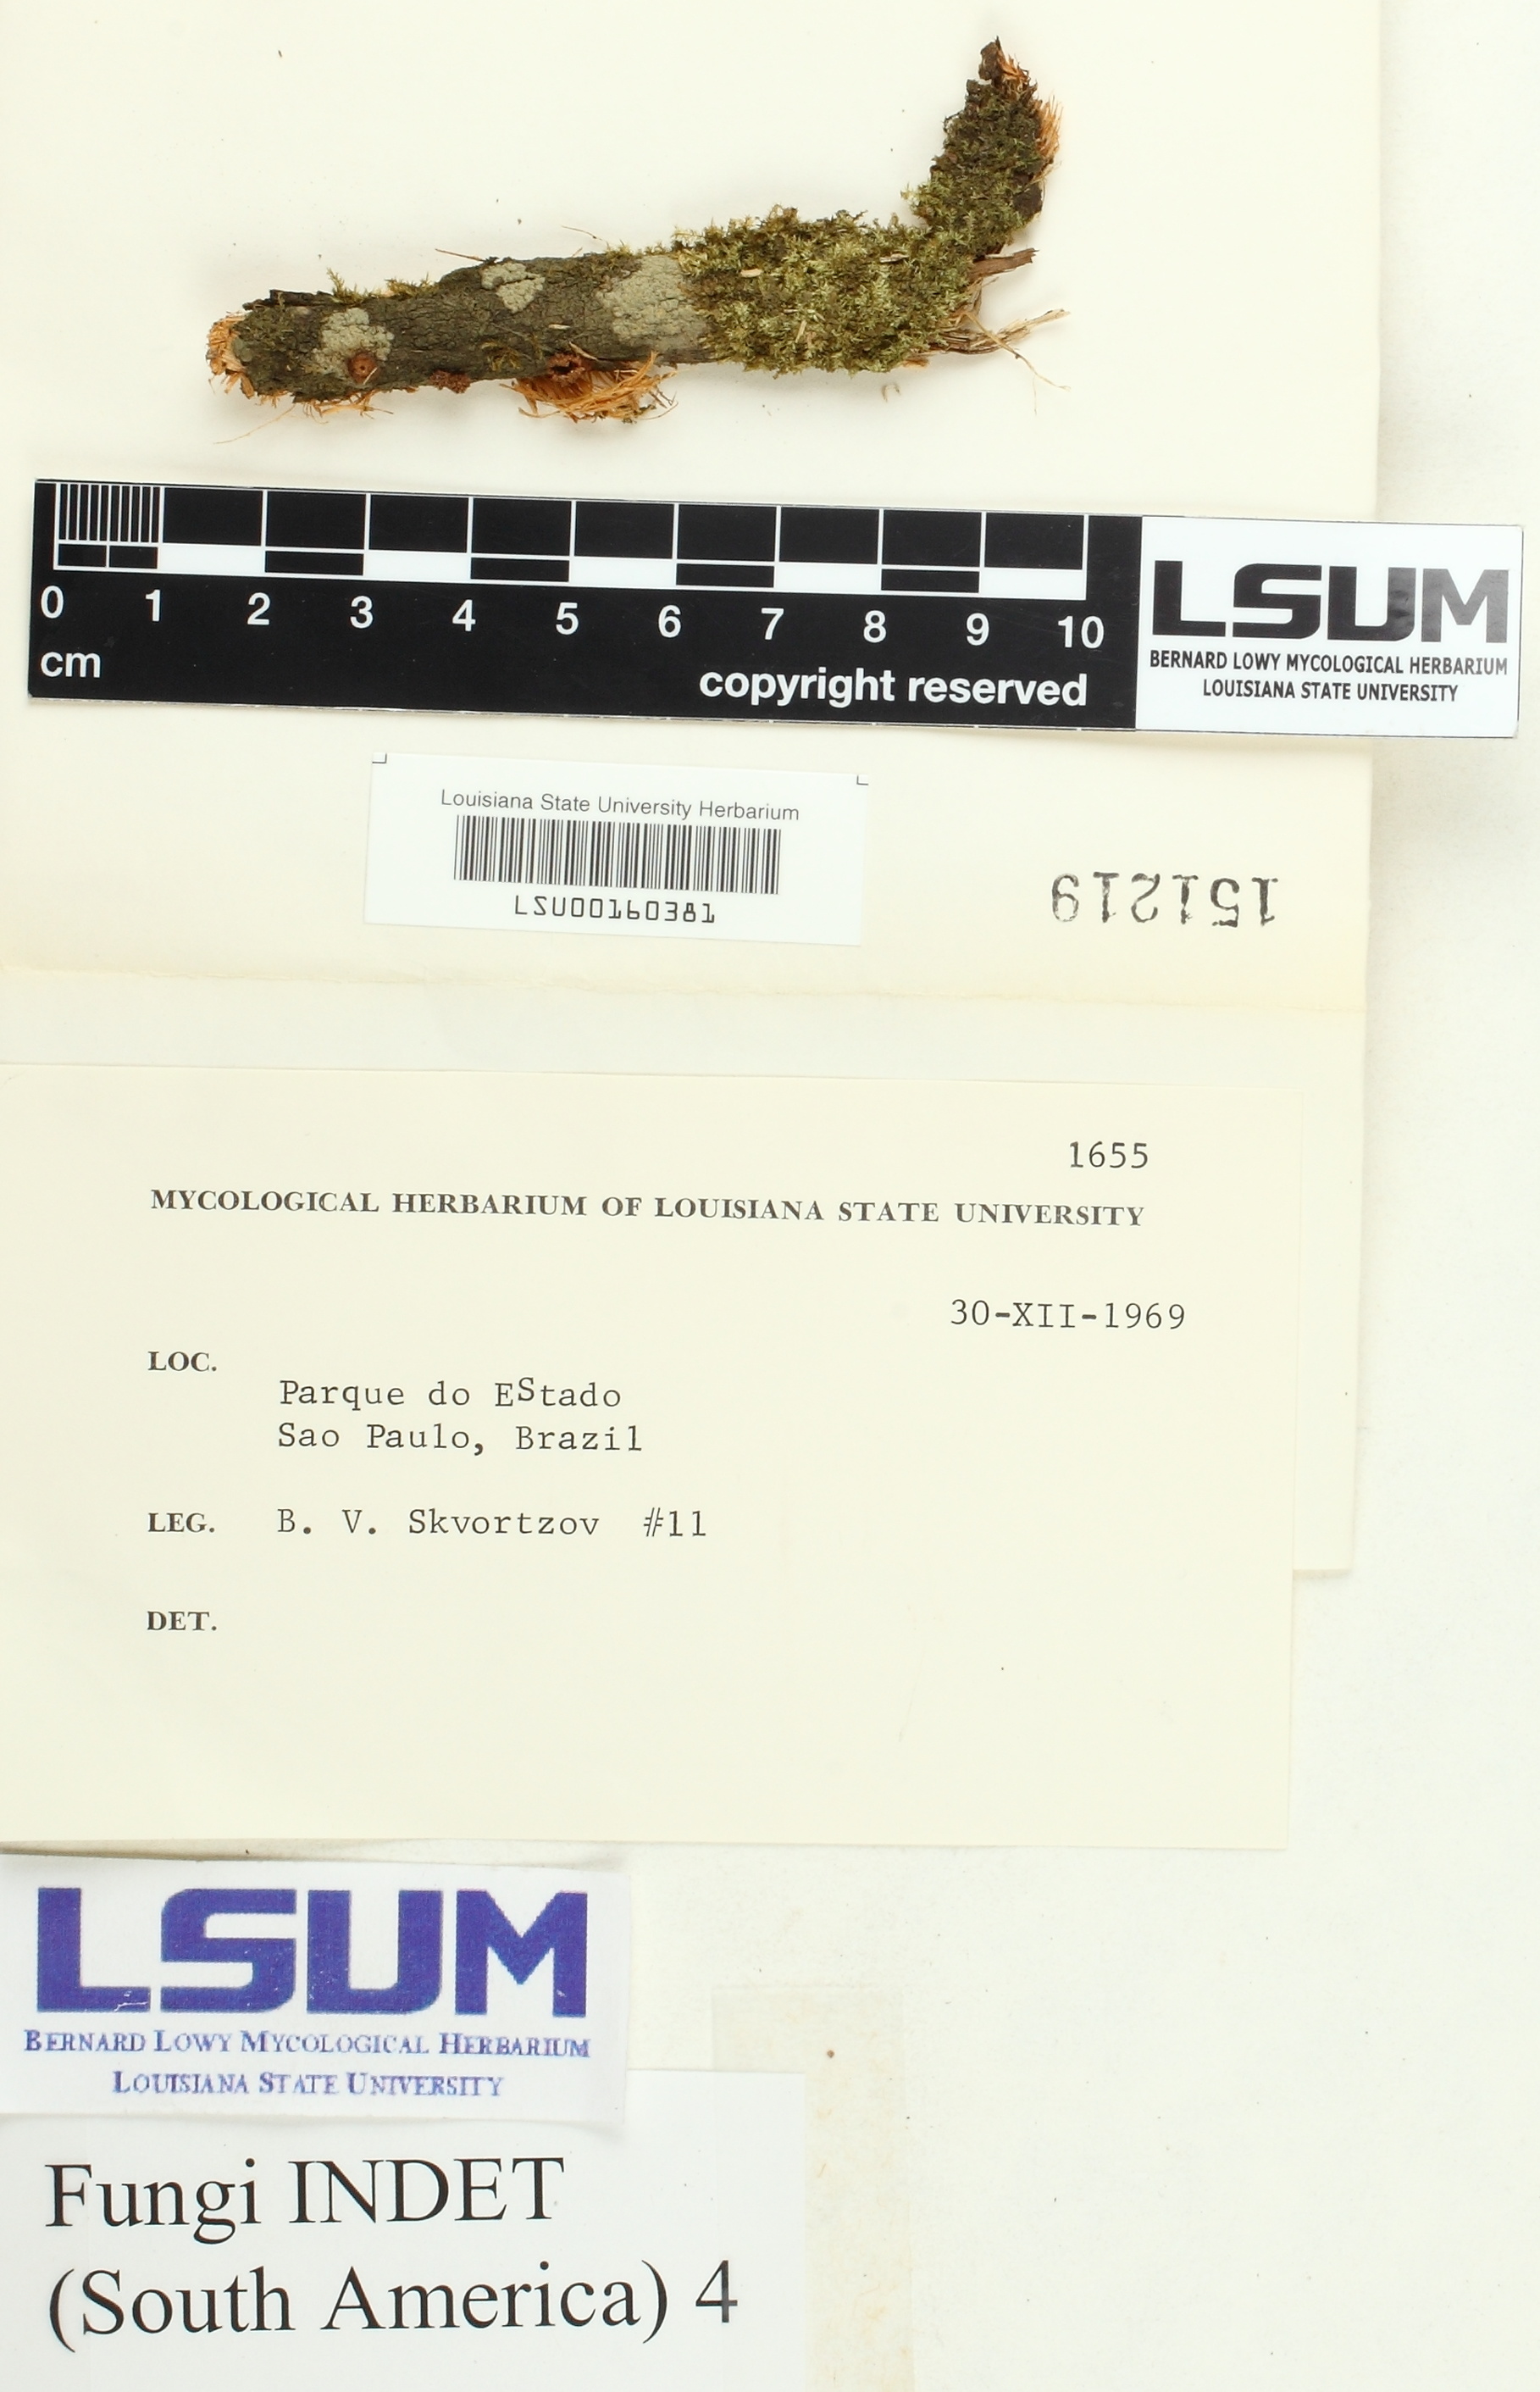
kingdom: Fungi
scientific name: Fungi
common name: Fungi
